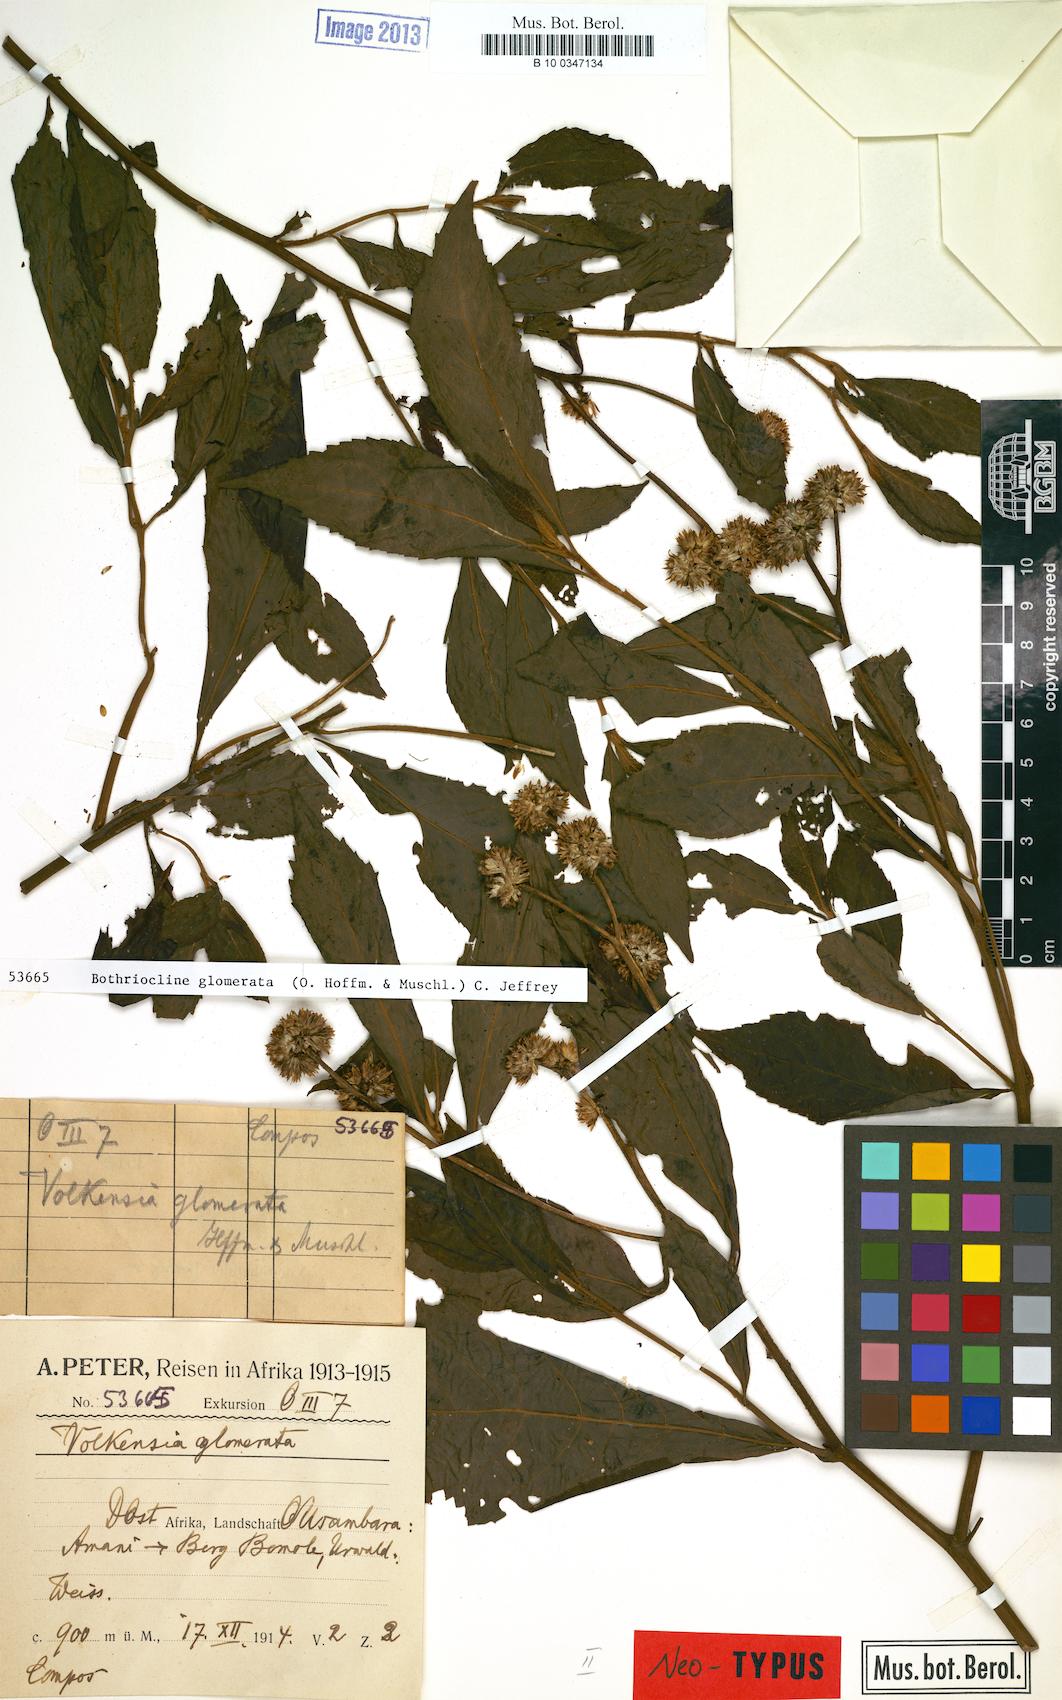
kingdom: Plantae
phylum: Tracheophyta
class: Magnoliopsida
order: Asterales
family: Asteraceae
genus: Bothriocline
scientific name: Bothriocline glomerata
